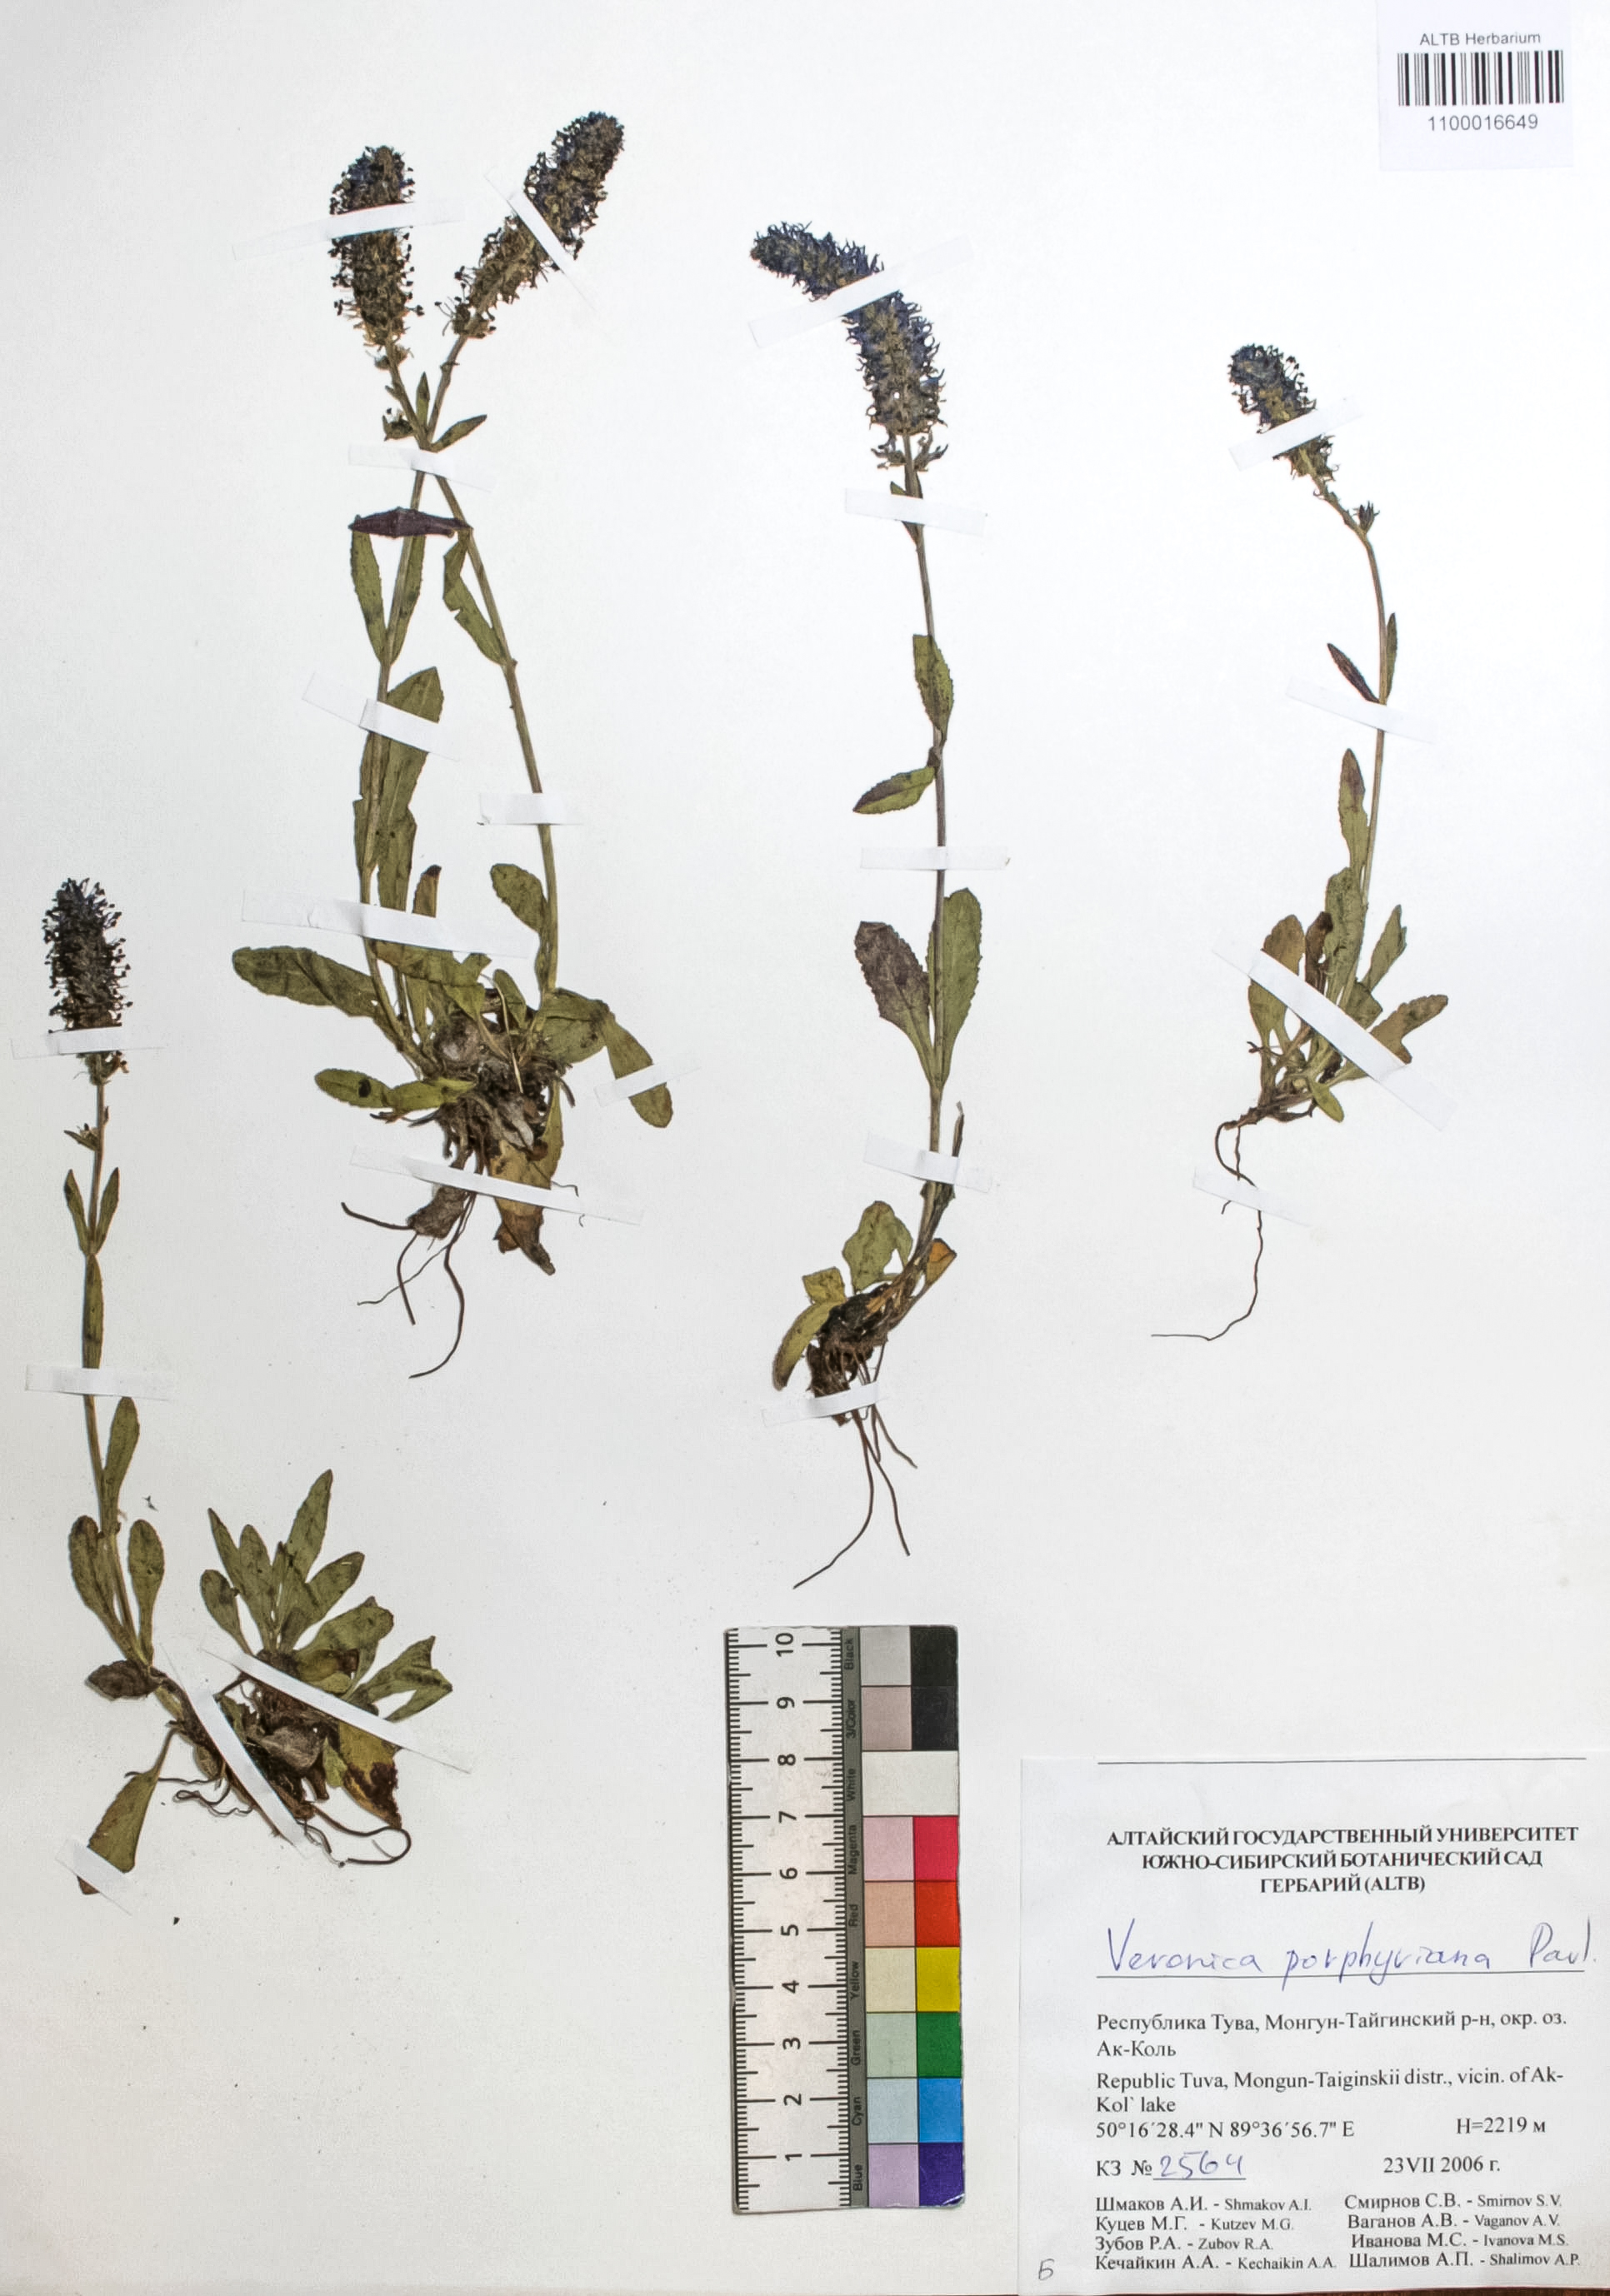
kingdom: Plantae
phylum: Tracheophyta
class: Magnoliopsida
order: Lamiales
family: Plantaginaceae
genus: Veronica
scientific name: Veronica porphyriana
